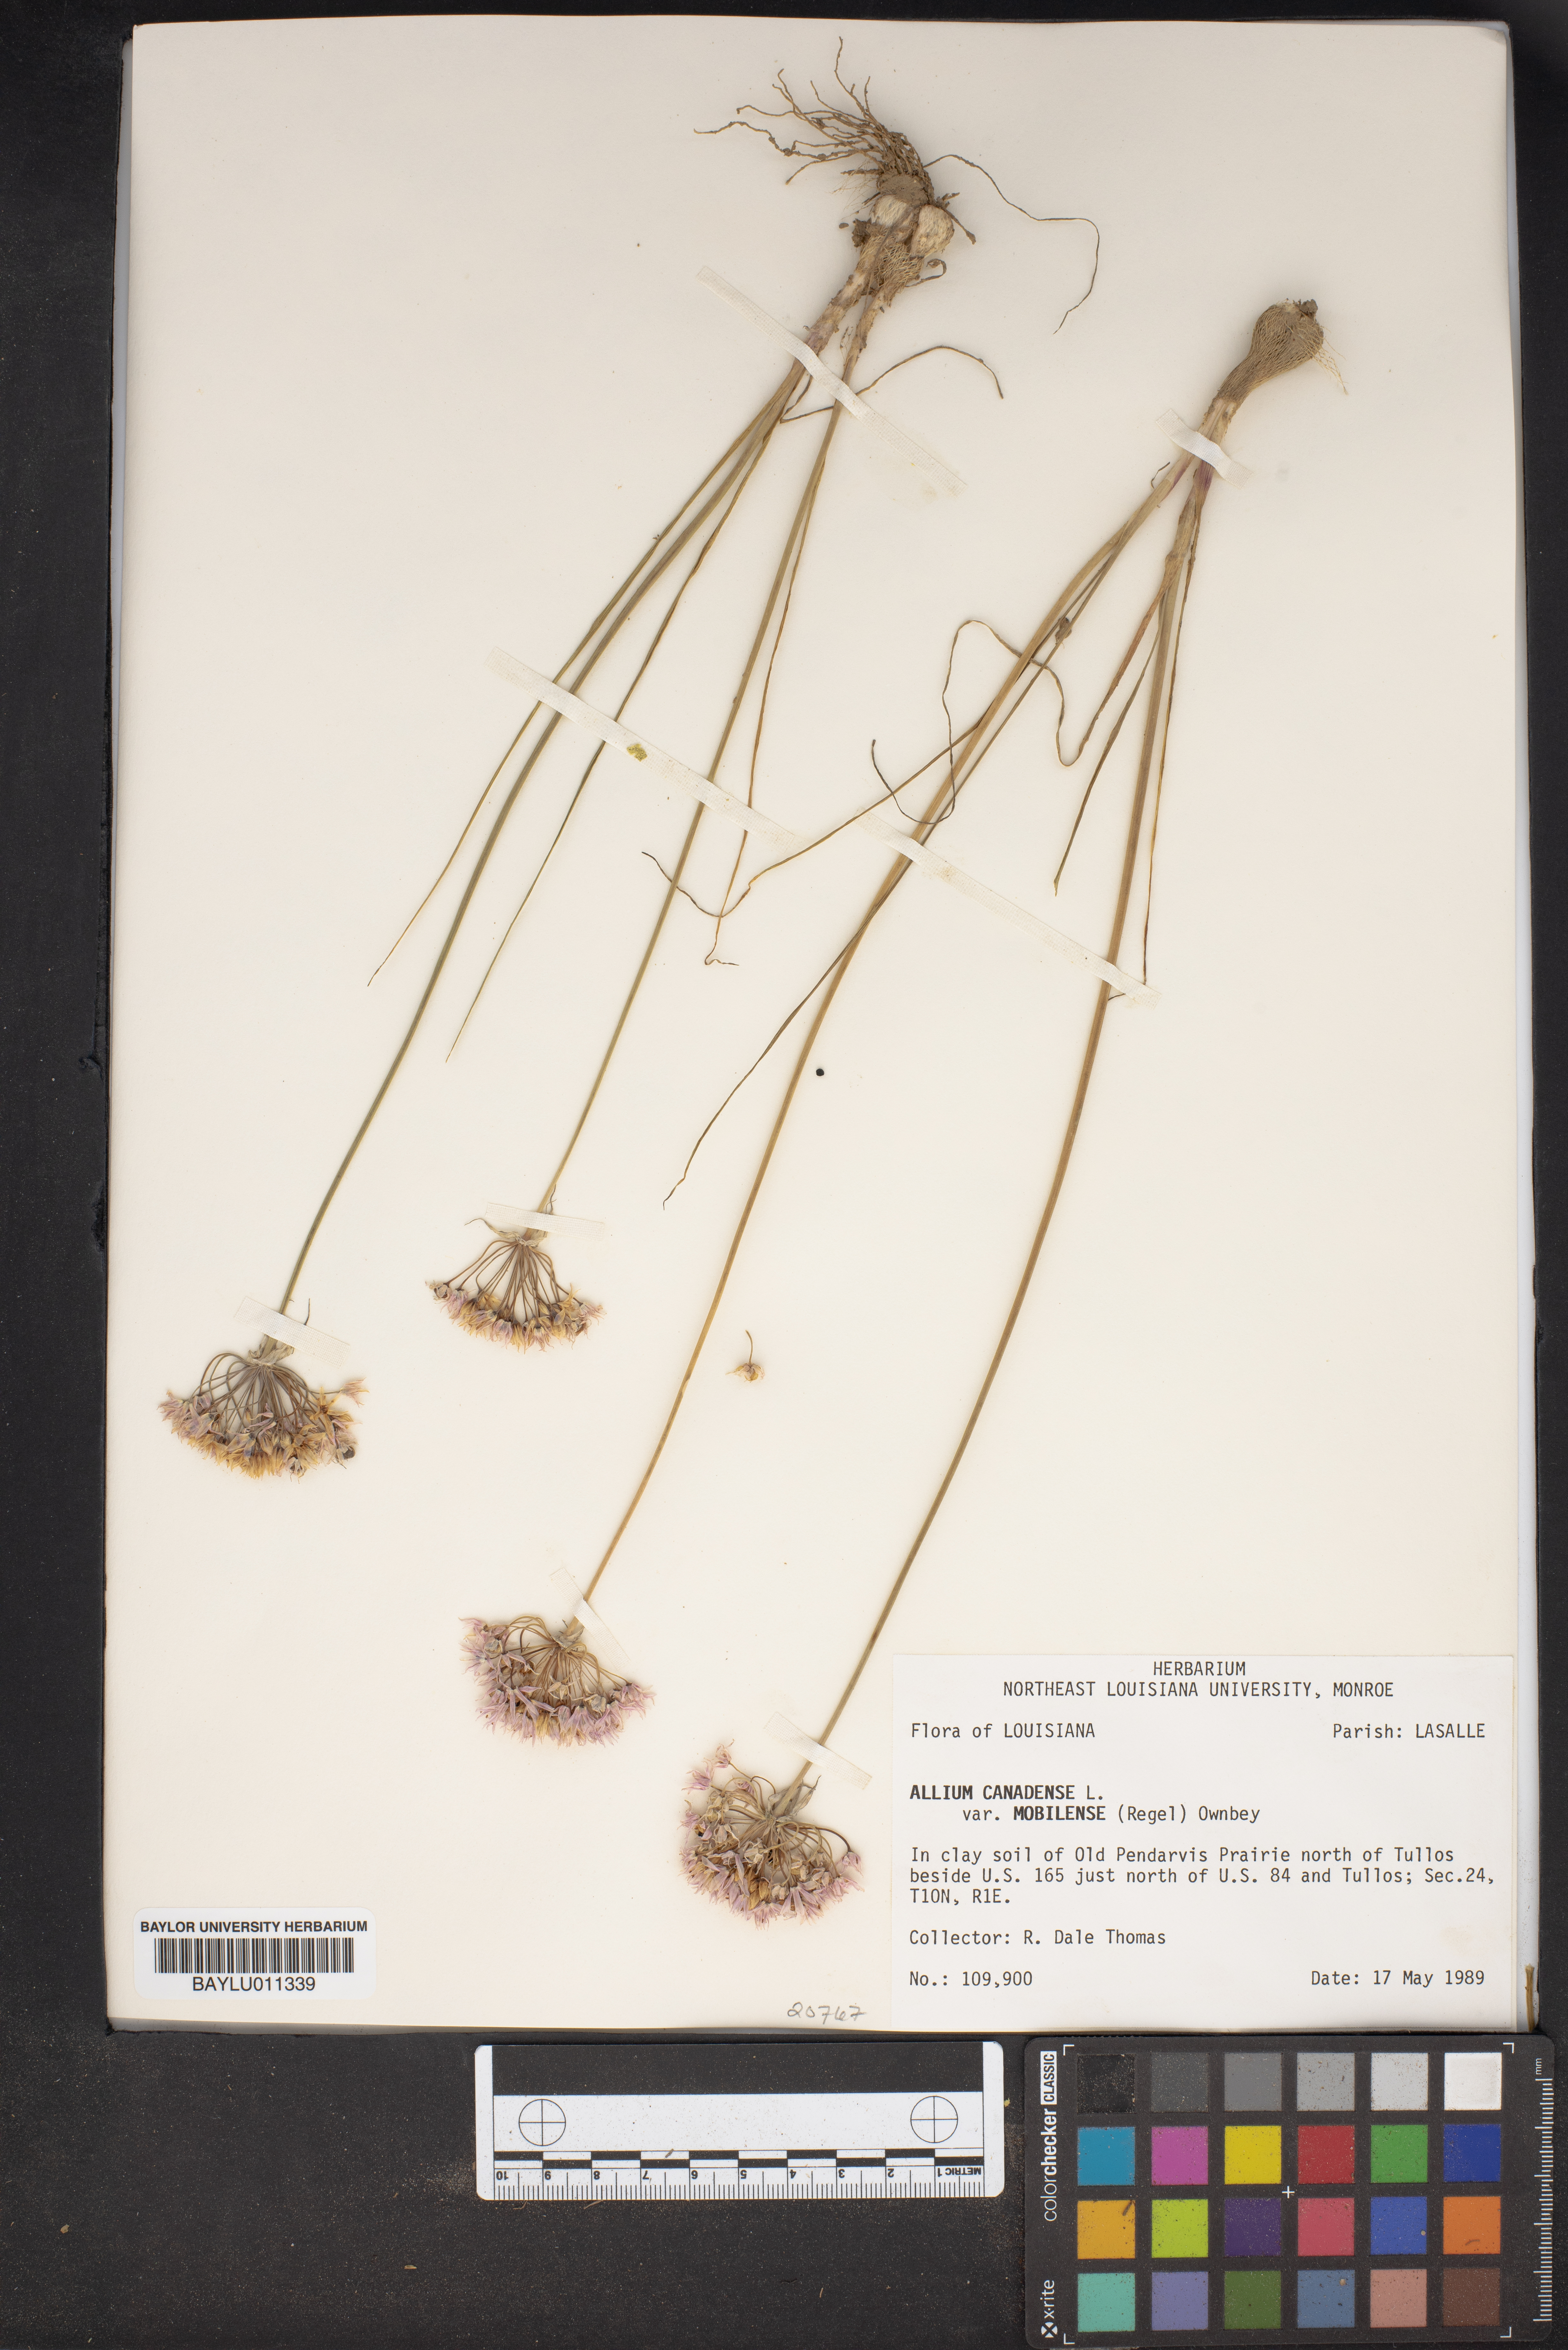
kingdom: Plantae
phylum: Tracheophyta
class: Liliopsida
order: Asparagales
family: Amaryllidaceae
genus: Allium
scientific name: Allium canadense
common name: Meadow garlic
